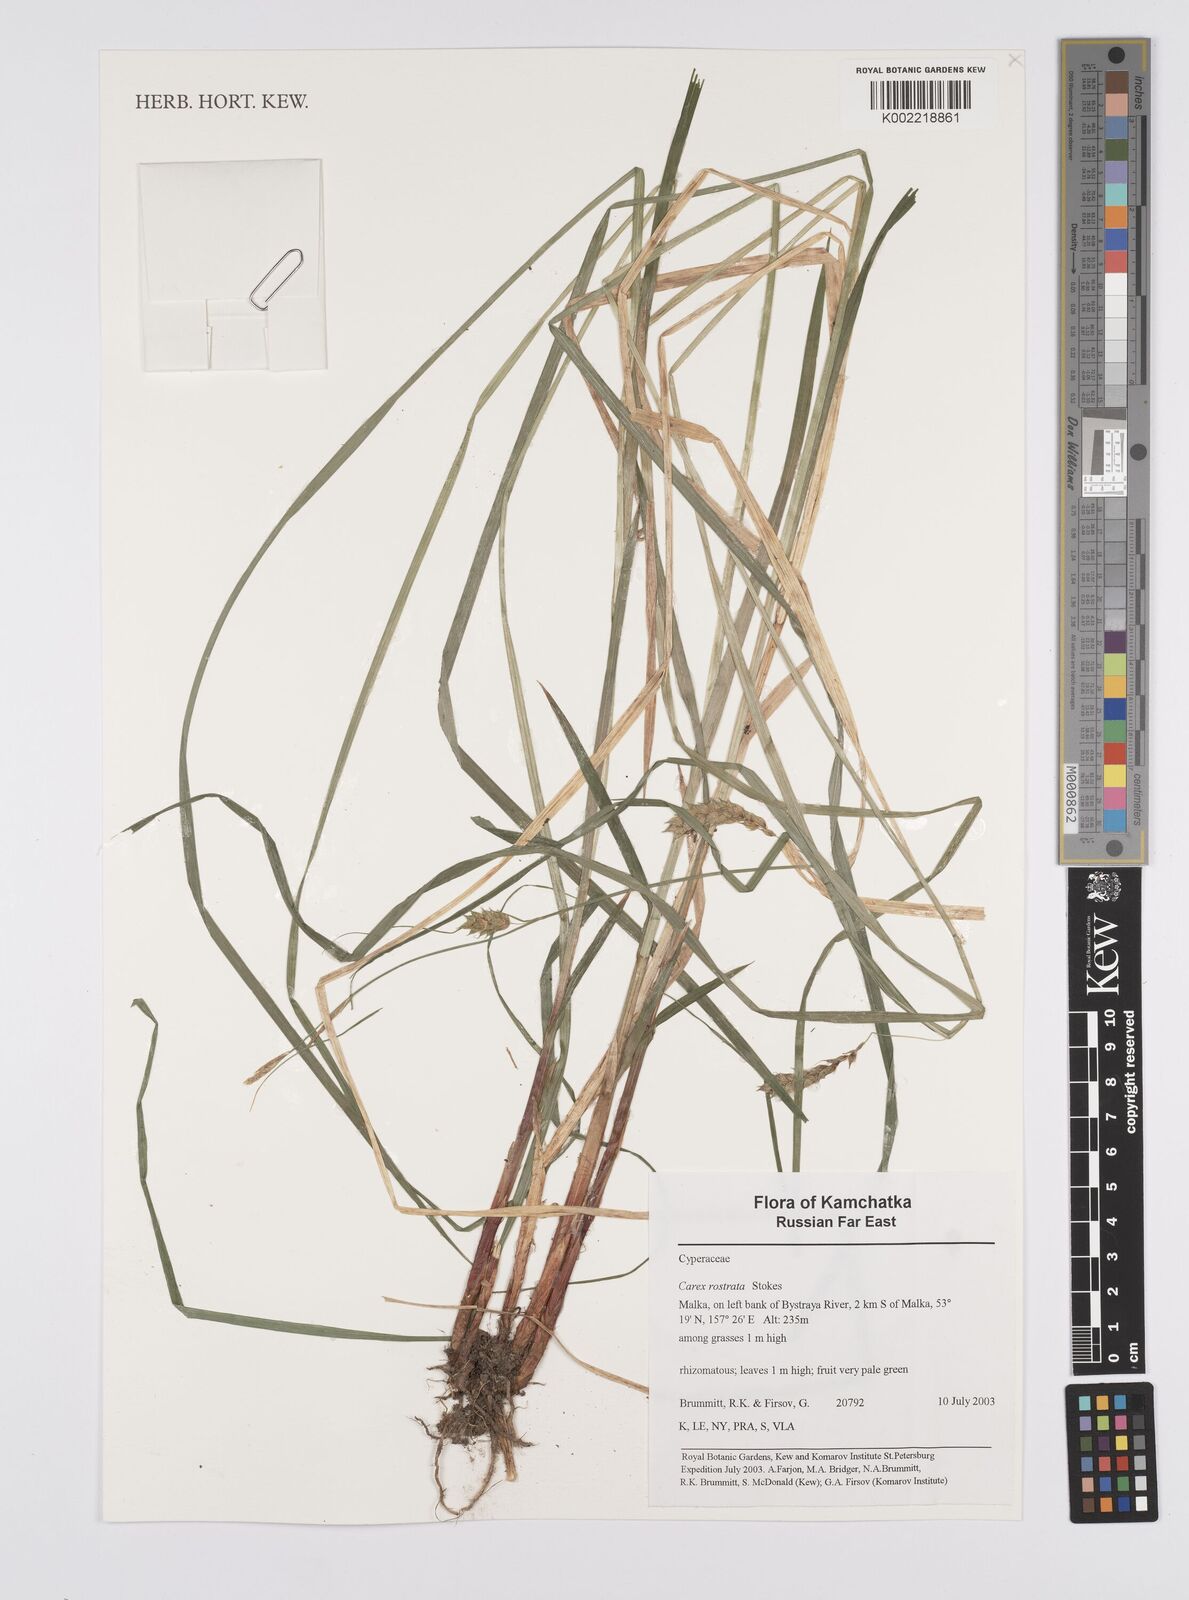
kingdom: Plantae
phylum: Tracheophyta
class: Liliopsida
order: Poales
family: Cyperaceae
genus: Carex
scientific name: Carex rostrata
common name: Bottle sedge
